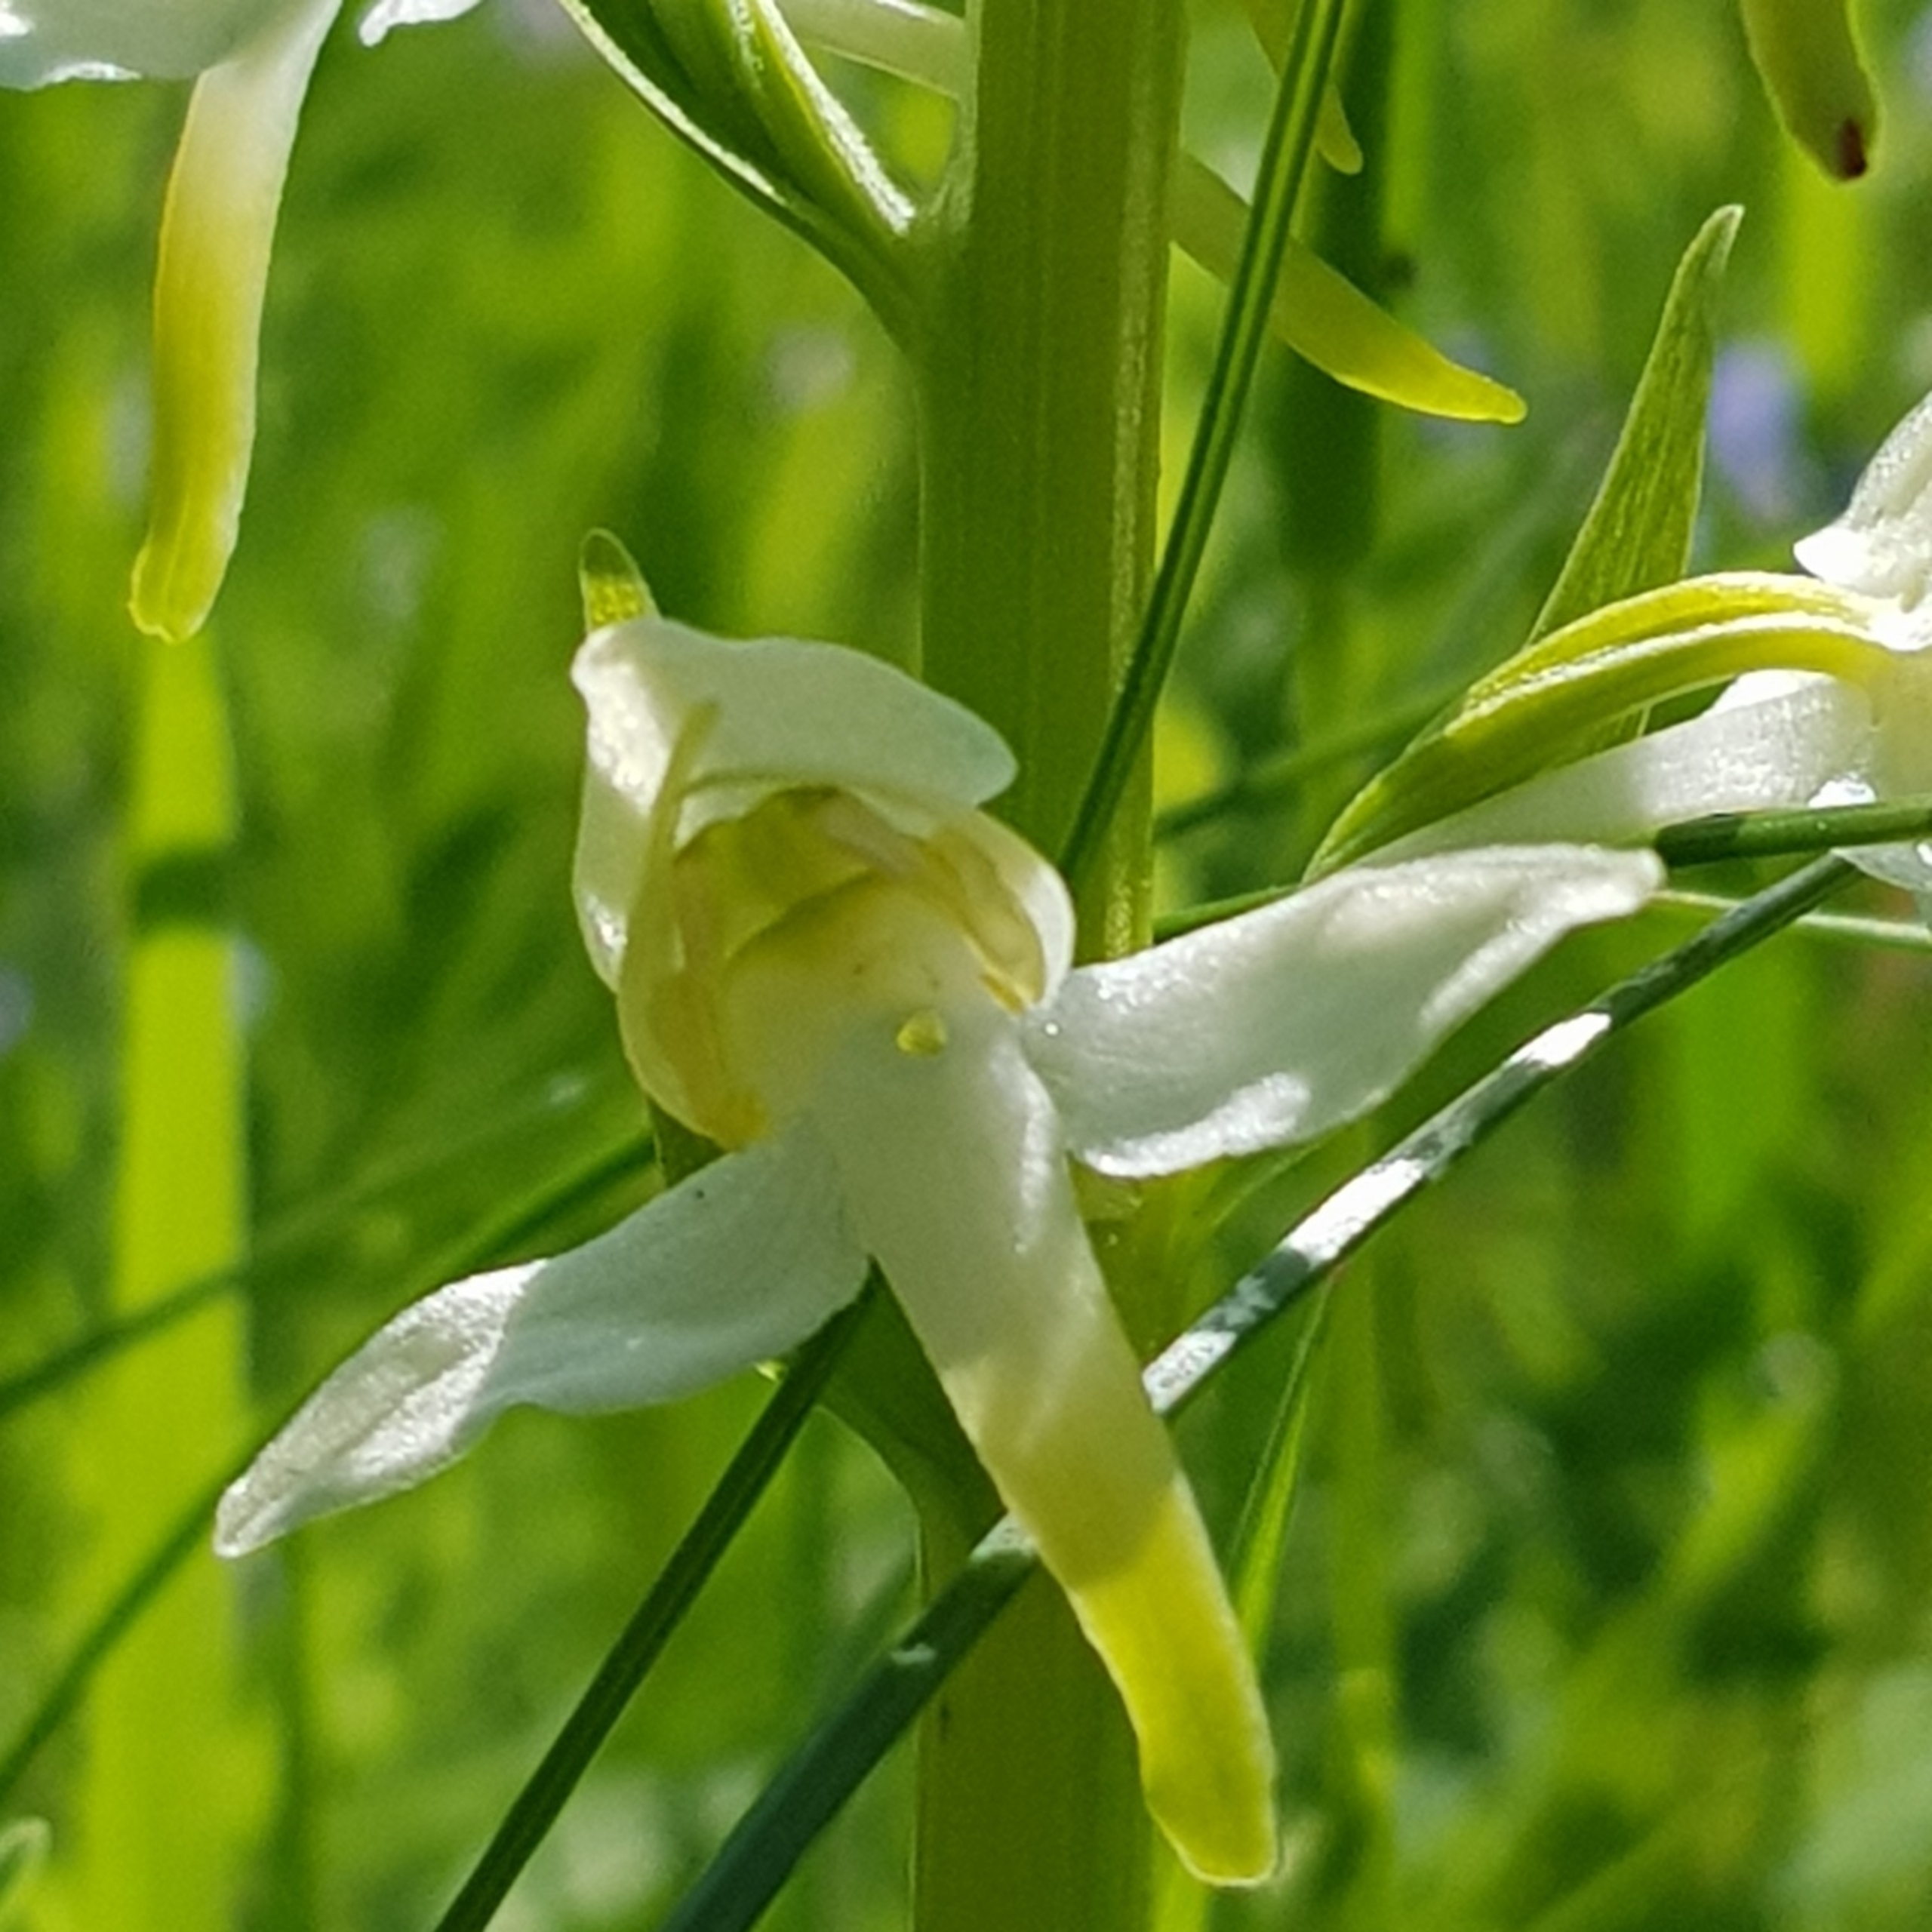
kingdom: Plantae
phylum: Tracheophyta
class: Liliopsida
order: Asparagales
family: Orchidaceae
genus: Platanthera
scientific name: Platanthera chlorantha
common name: Skov-gøgelilje
